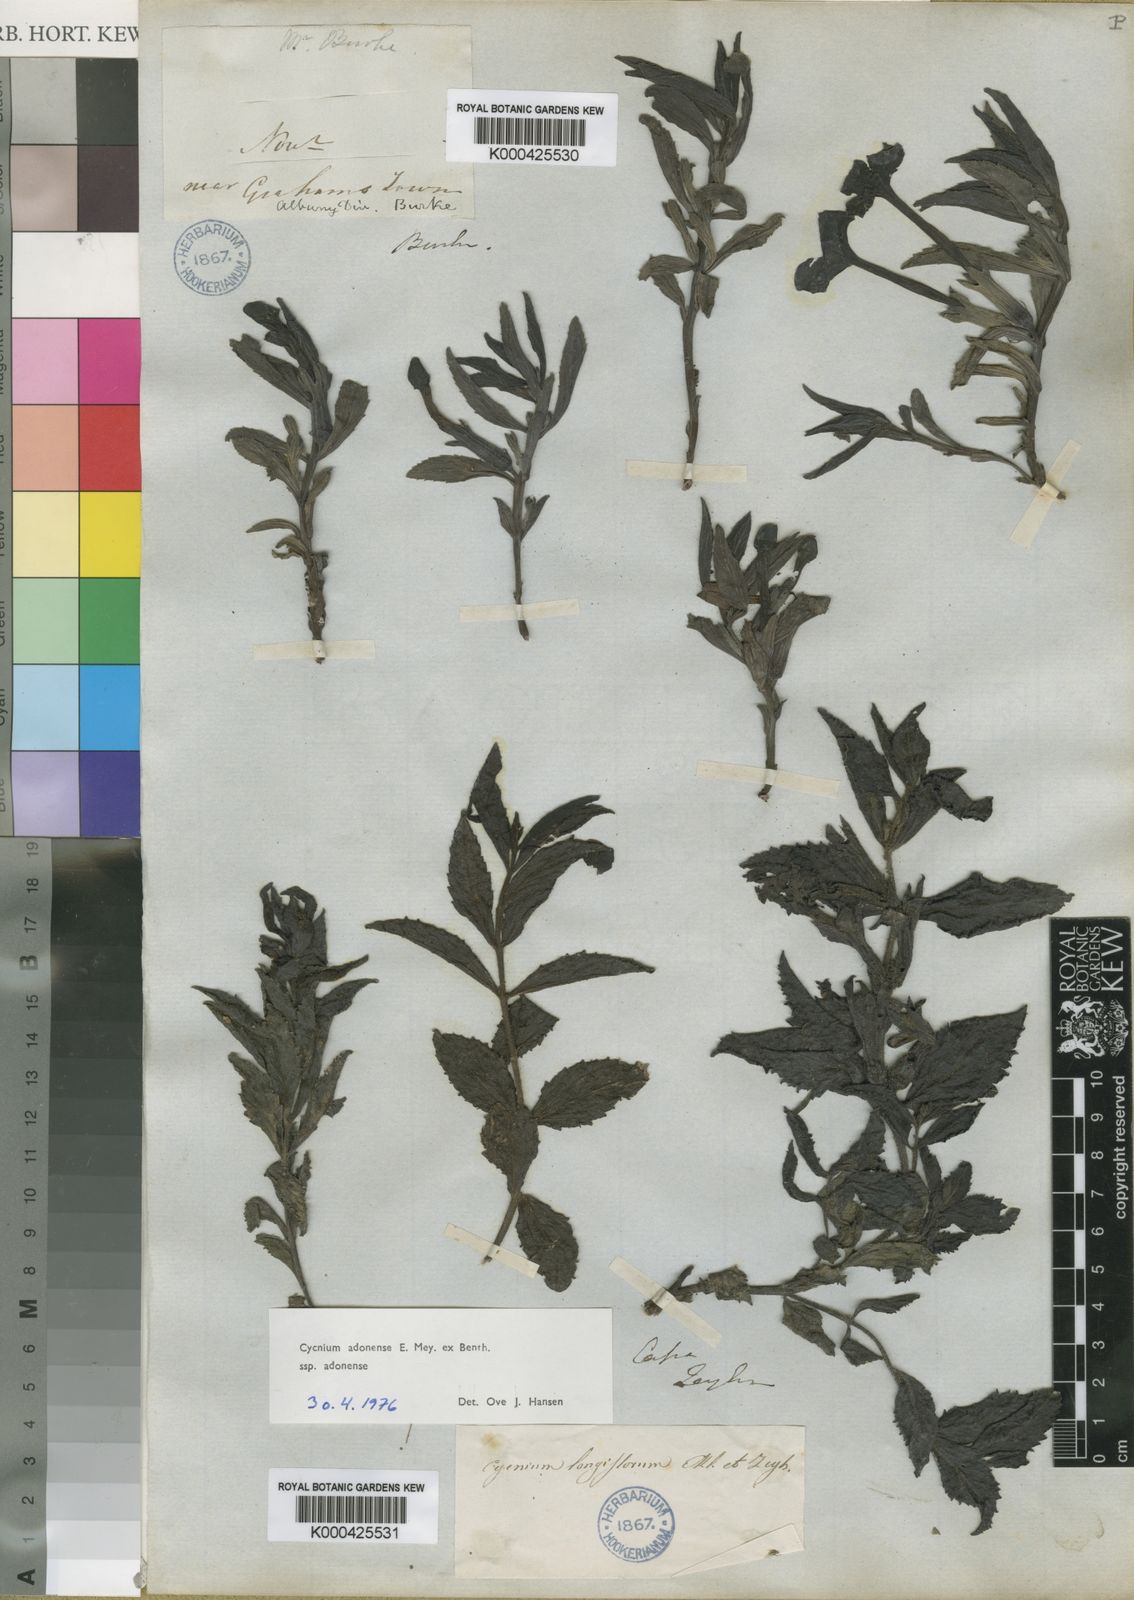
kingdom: Plantae
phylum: Tracheophyta
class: Magnoliopsida
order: Lamiales
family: Orobanchaceae
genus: Cycnium
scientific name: Cycnium adonense
